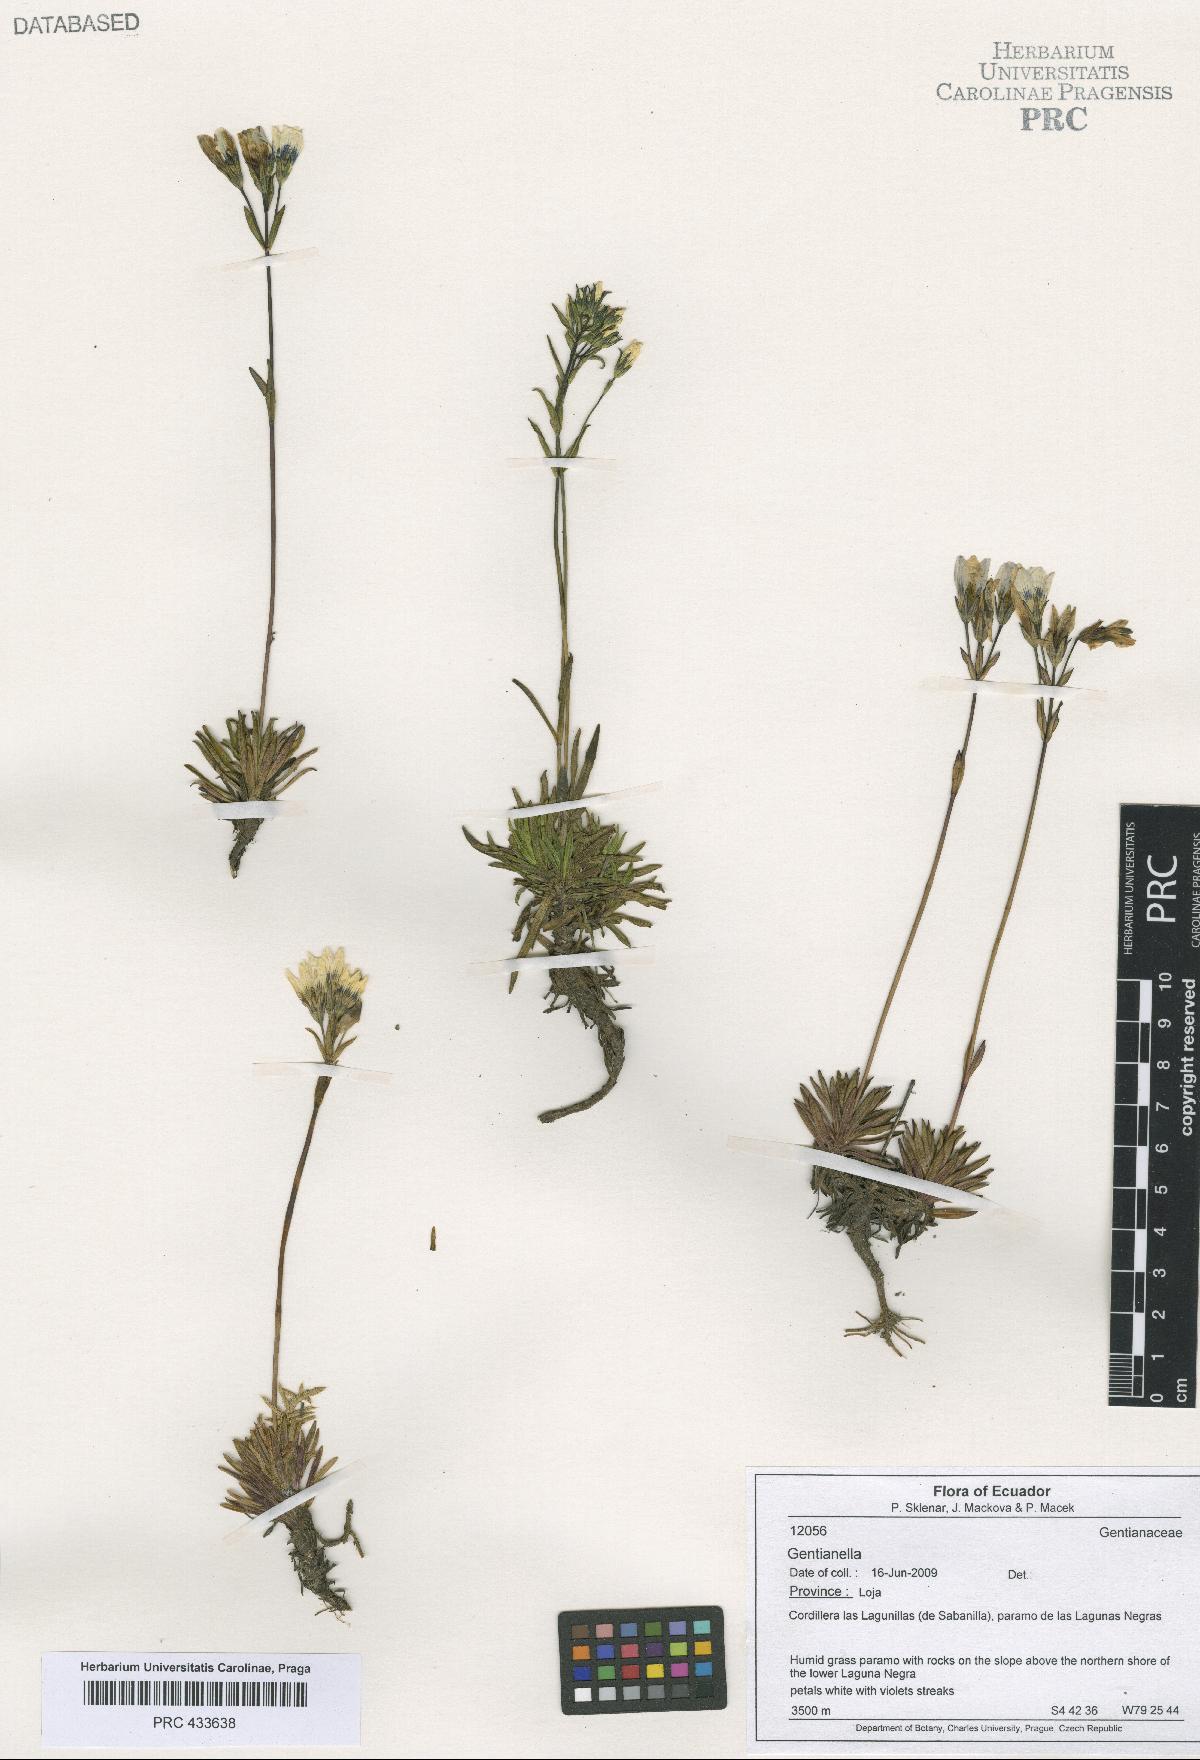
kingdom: Plantae
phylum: Tracheophyta
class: Magnoliopsida
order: Gentianales
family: Gentianaceae
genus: Gentianella
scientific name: Gentianella
